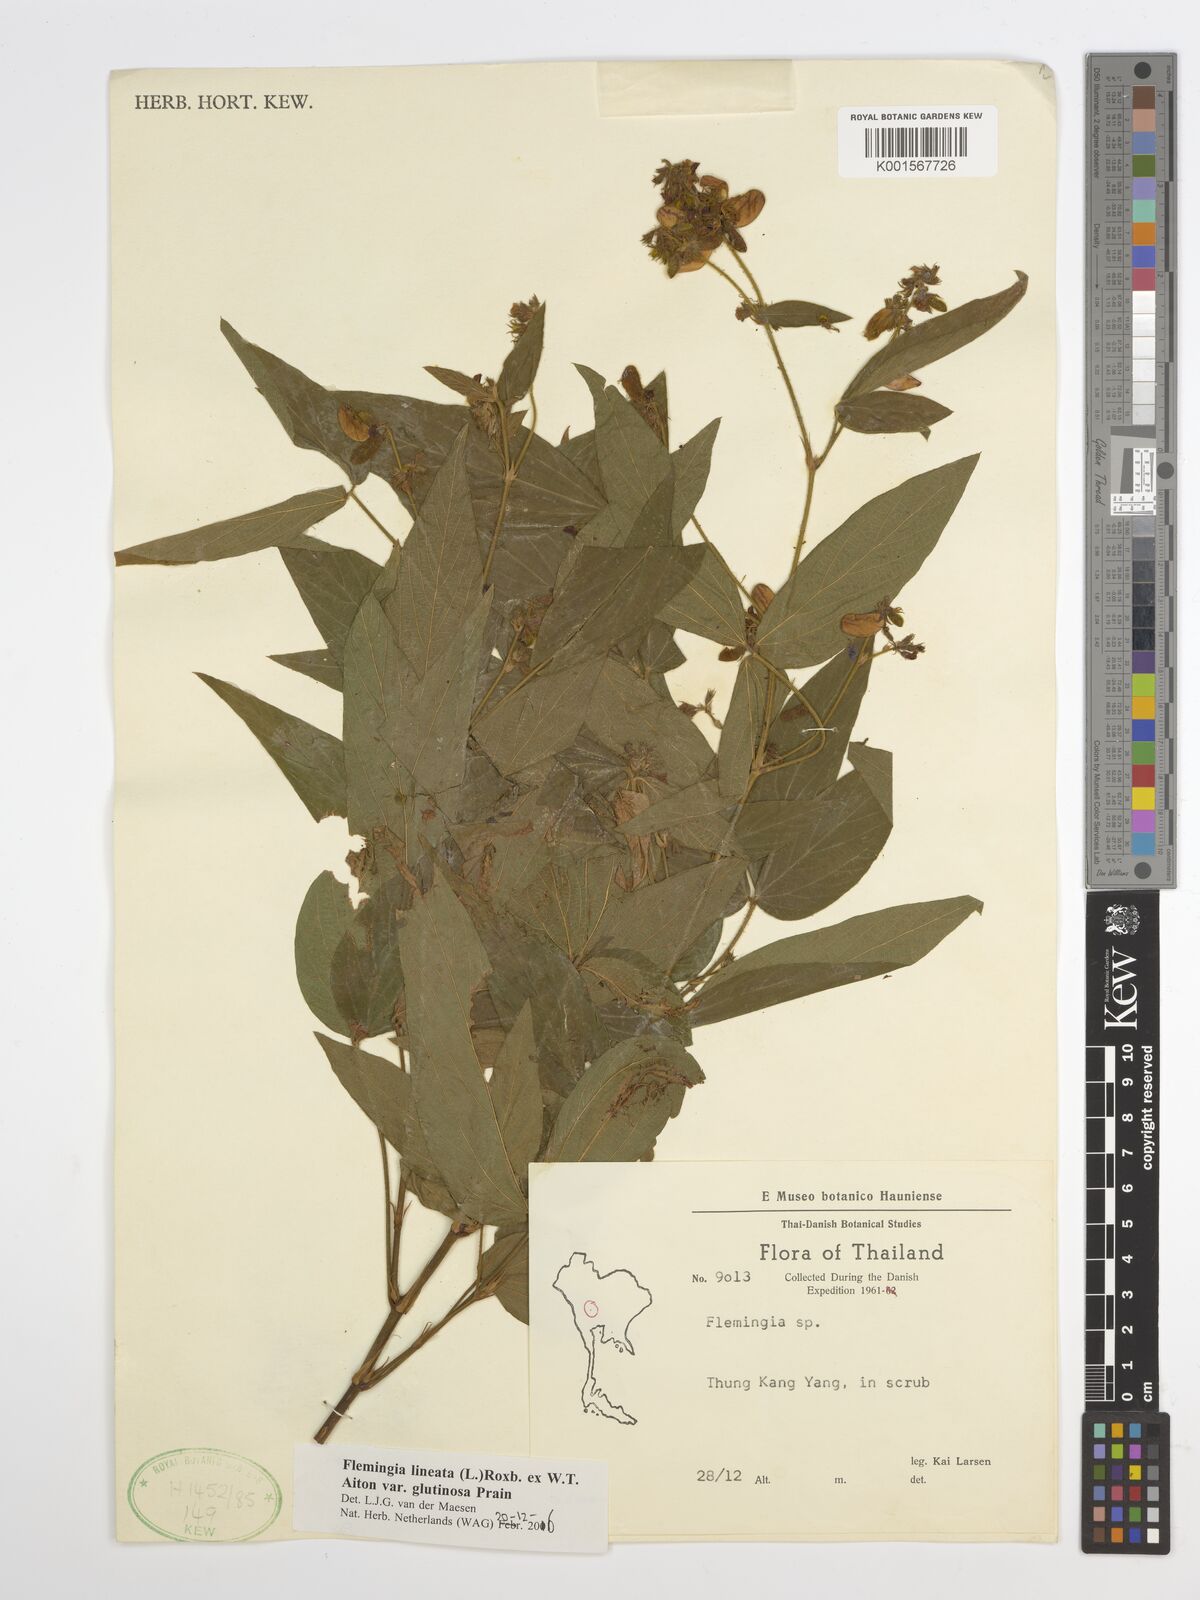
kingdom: Plantae
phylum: Tracheophyta
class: Magnoliopsida
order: Fabales
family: Fabaceae
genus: Flemingia
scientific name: Flemingia lineata
